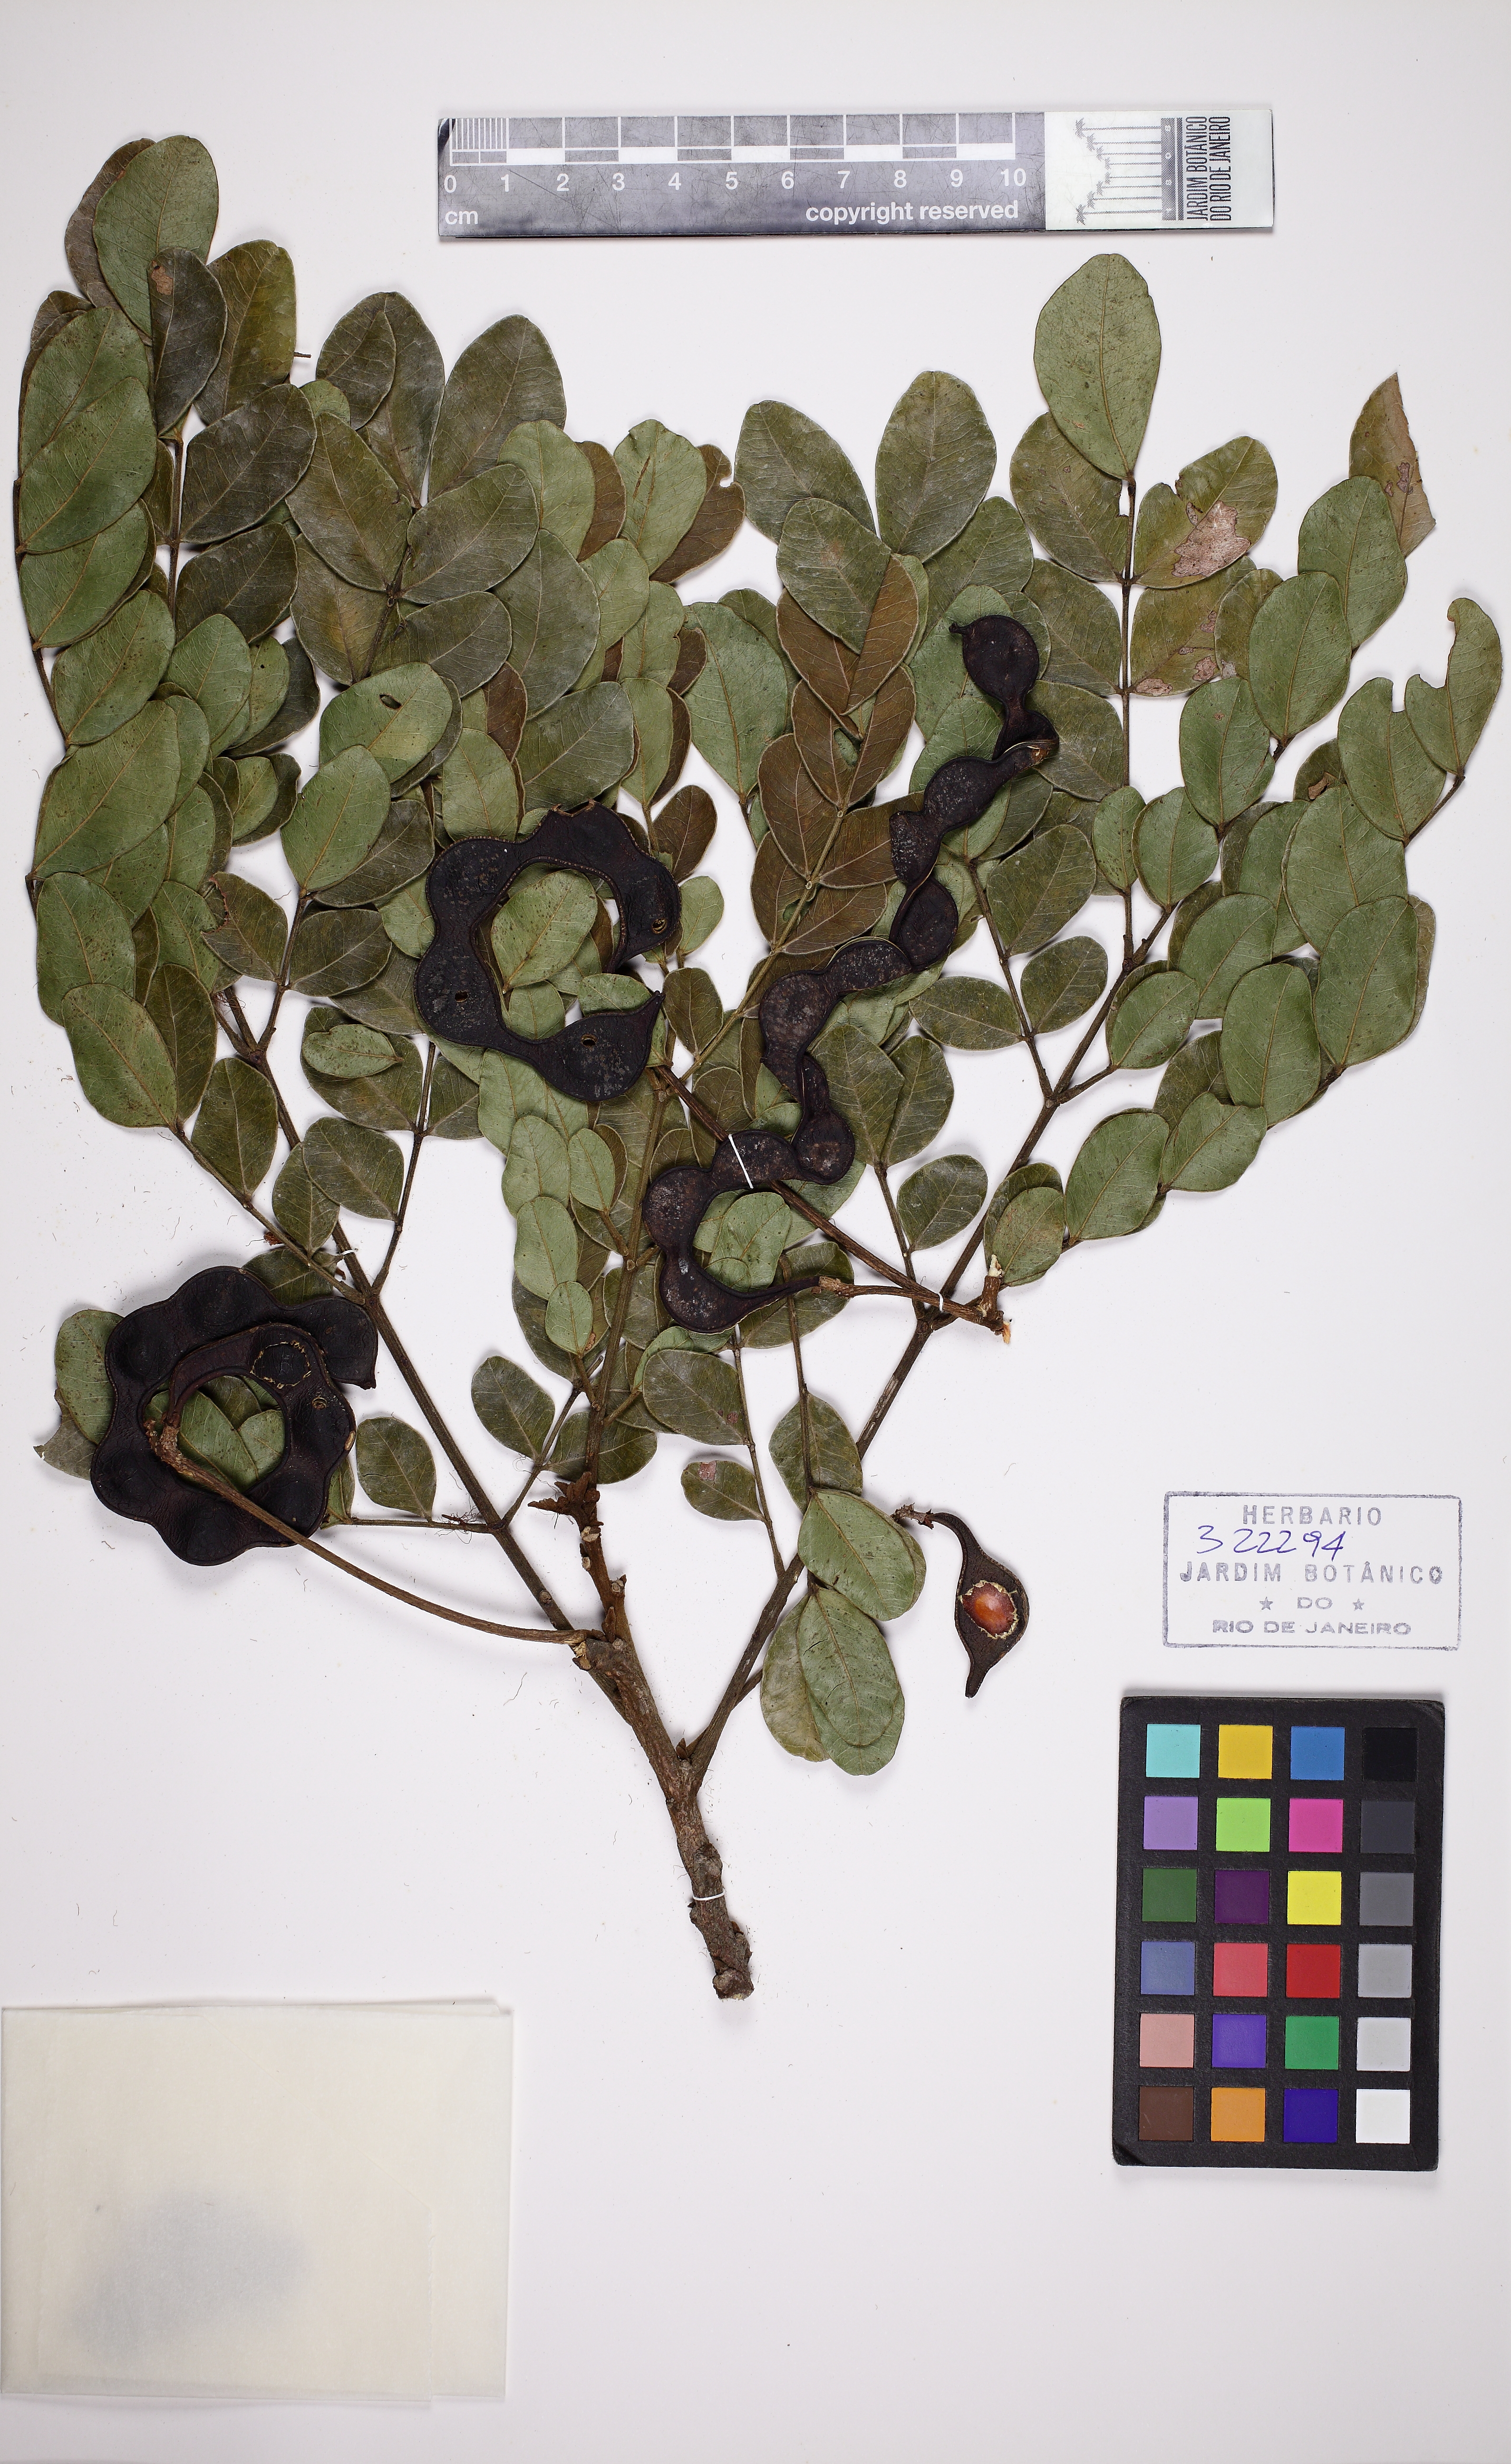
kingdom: Plantae
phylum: Tracheophyta
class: Magnoliopsida
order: Fabales
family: Fabaceae
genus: Jupunba
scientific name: Jupunba villosa
